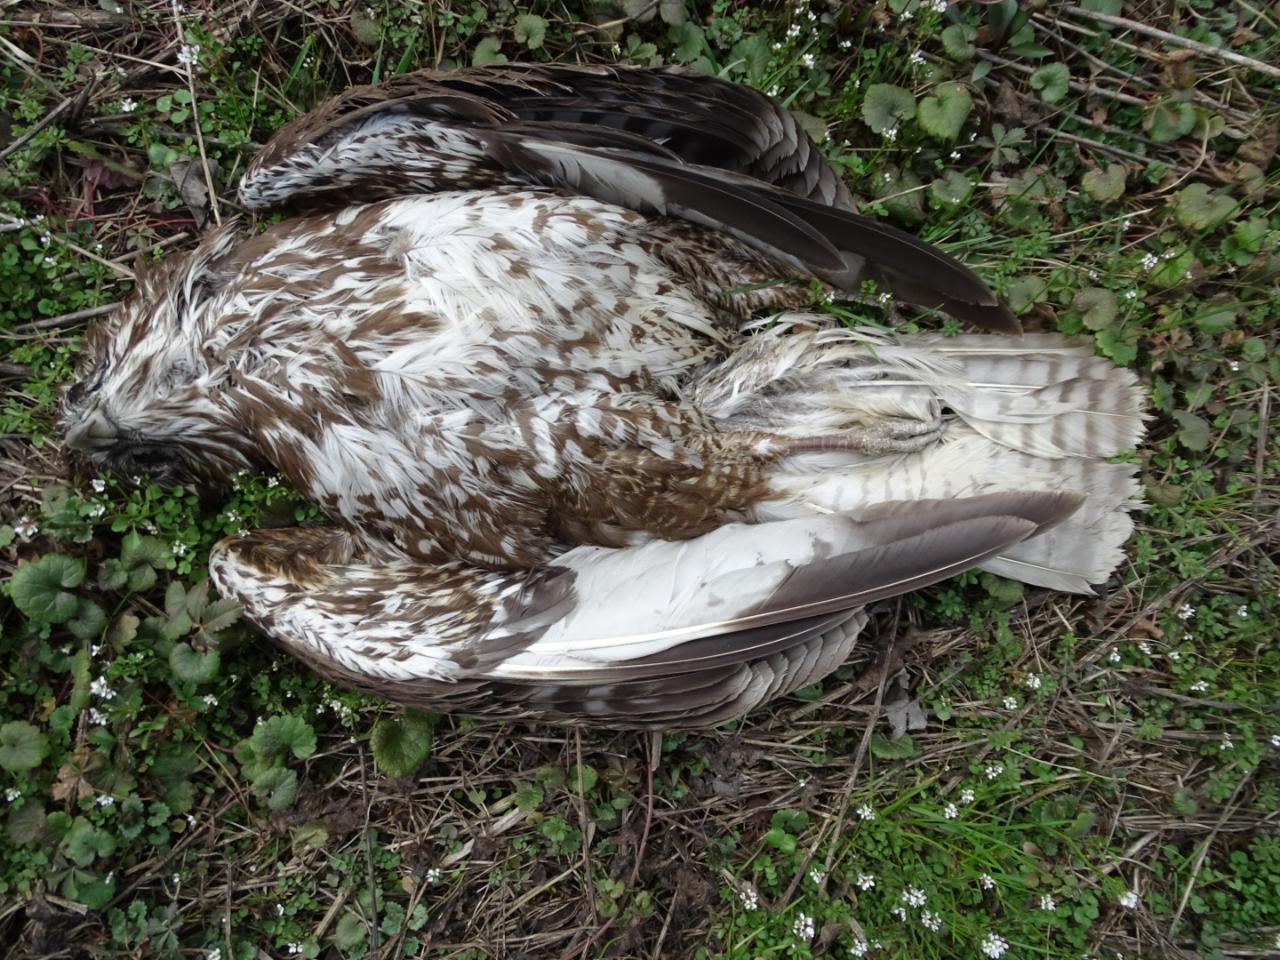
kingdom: Animalia
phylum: Chordata
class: Aves
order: Accipitriformes
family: Accipitridae
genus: Buteo
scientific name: Buteo buteo
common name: Common buzzard
